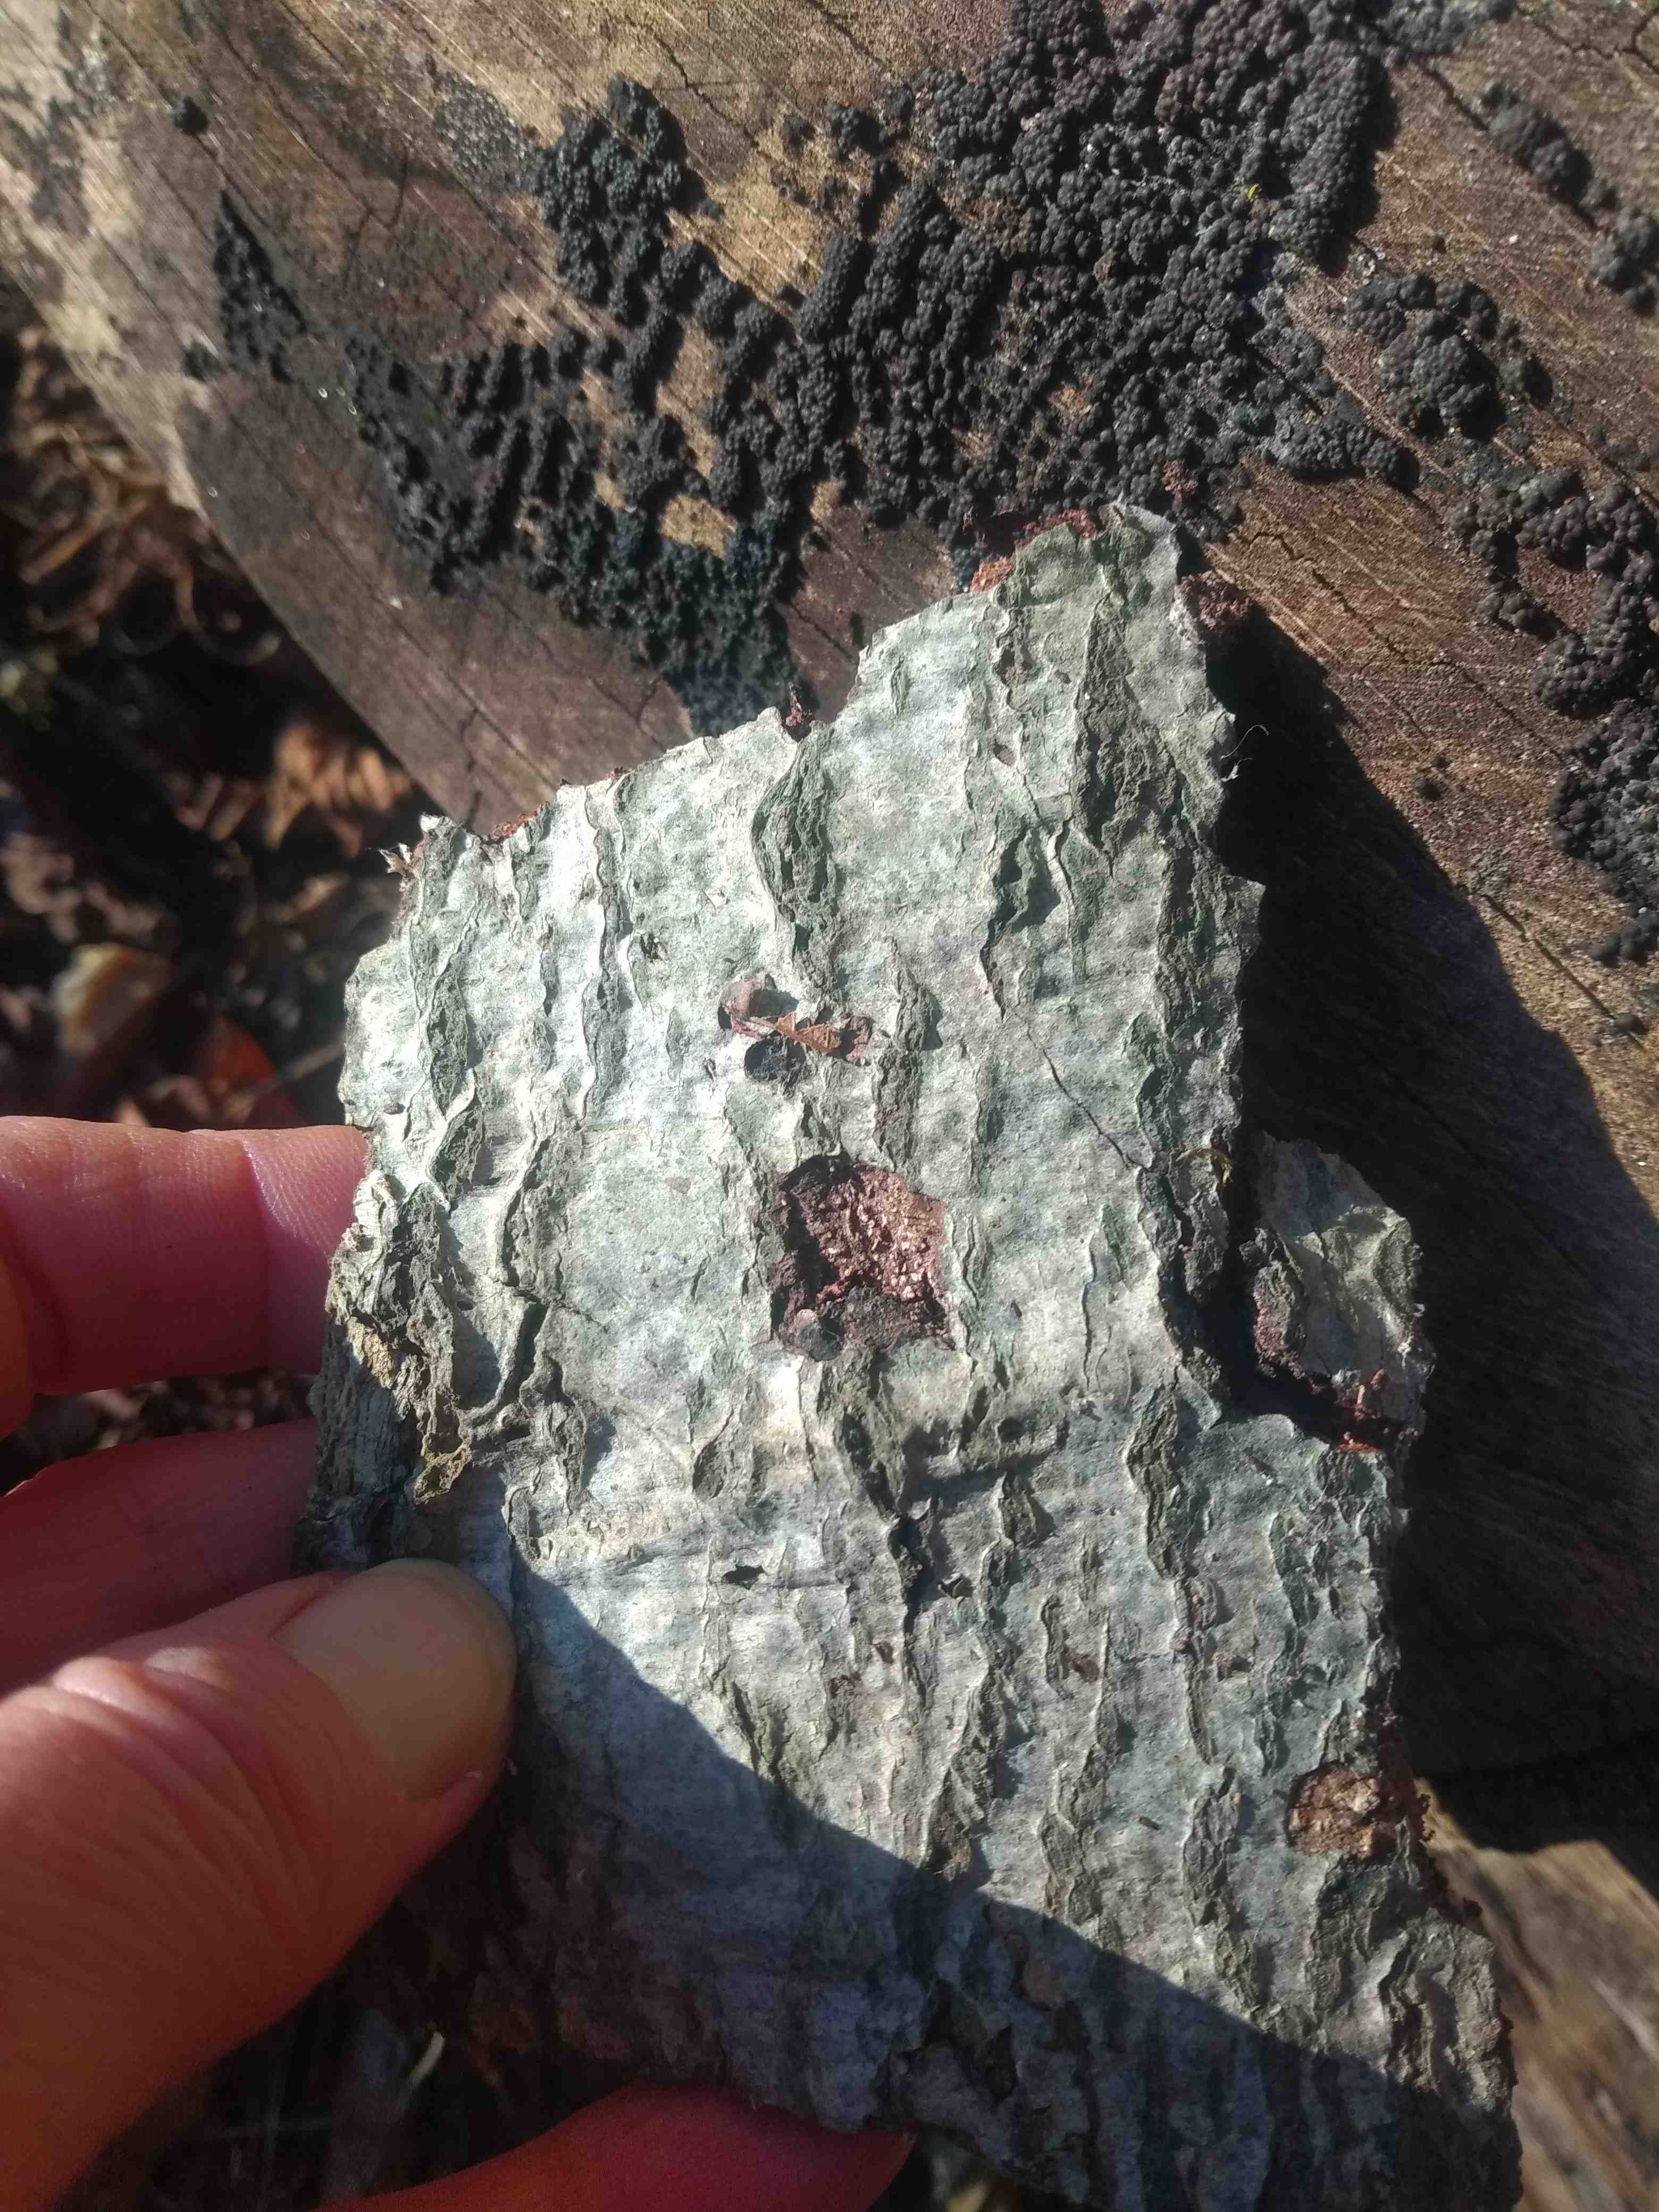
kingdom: Fungi
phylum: Ascomycota
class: Sordariomycetes
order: Xylariales
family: Hypoxylaceae
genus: Jackrogersella
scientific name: Jackrogersella cohaerens
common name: sammenflydende kulbær
